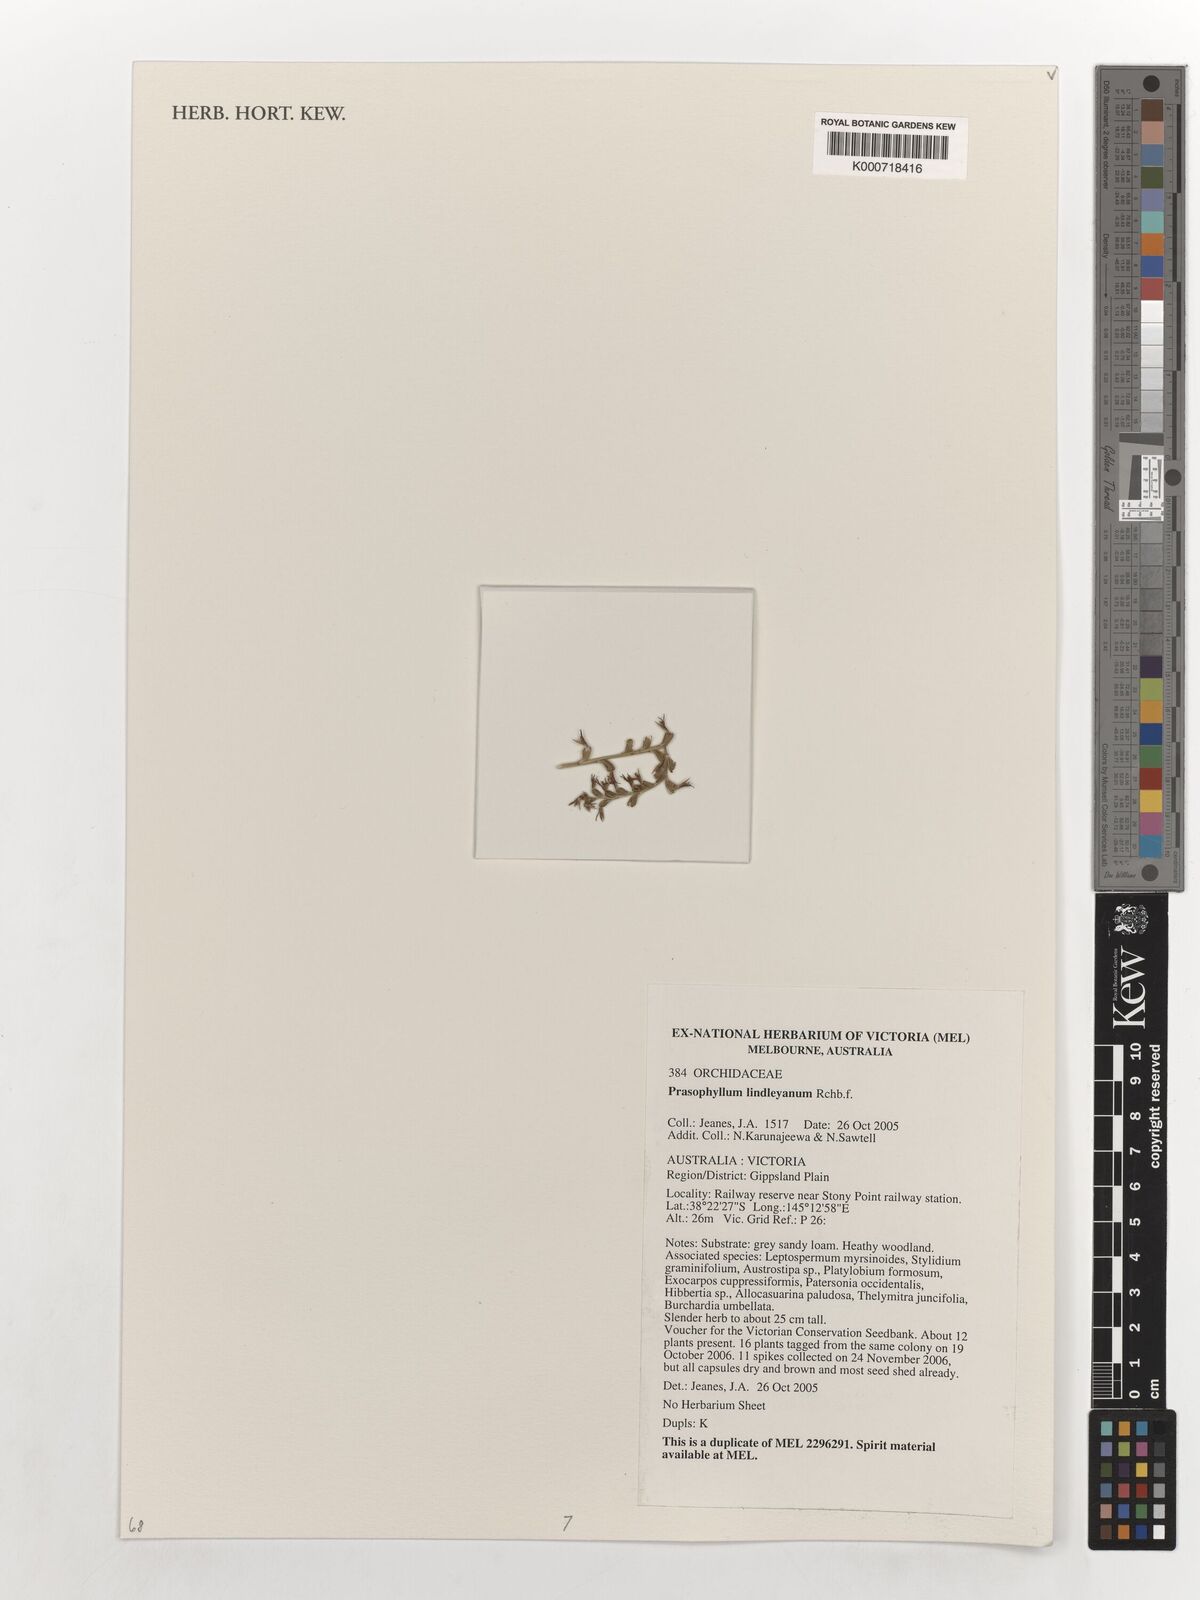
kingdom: Plantae
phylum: Tracheophyta
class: Liliopsida
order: Asparagales
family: Orchidaceae
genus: Prasophyllum
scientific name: Prasophyllum lindleyanum
